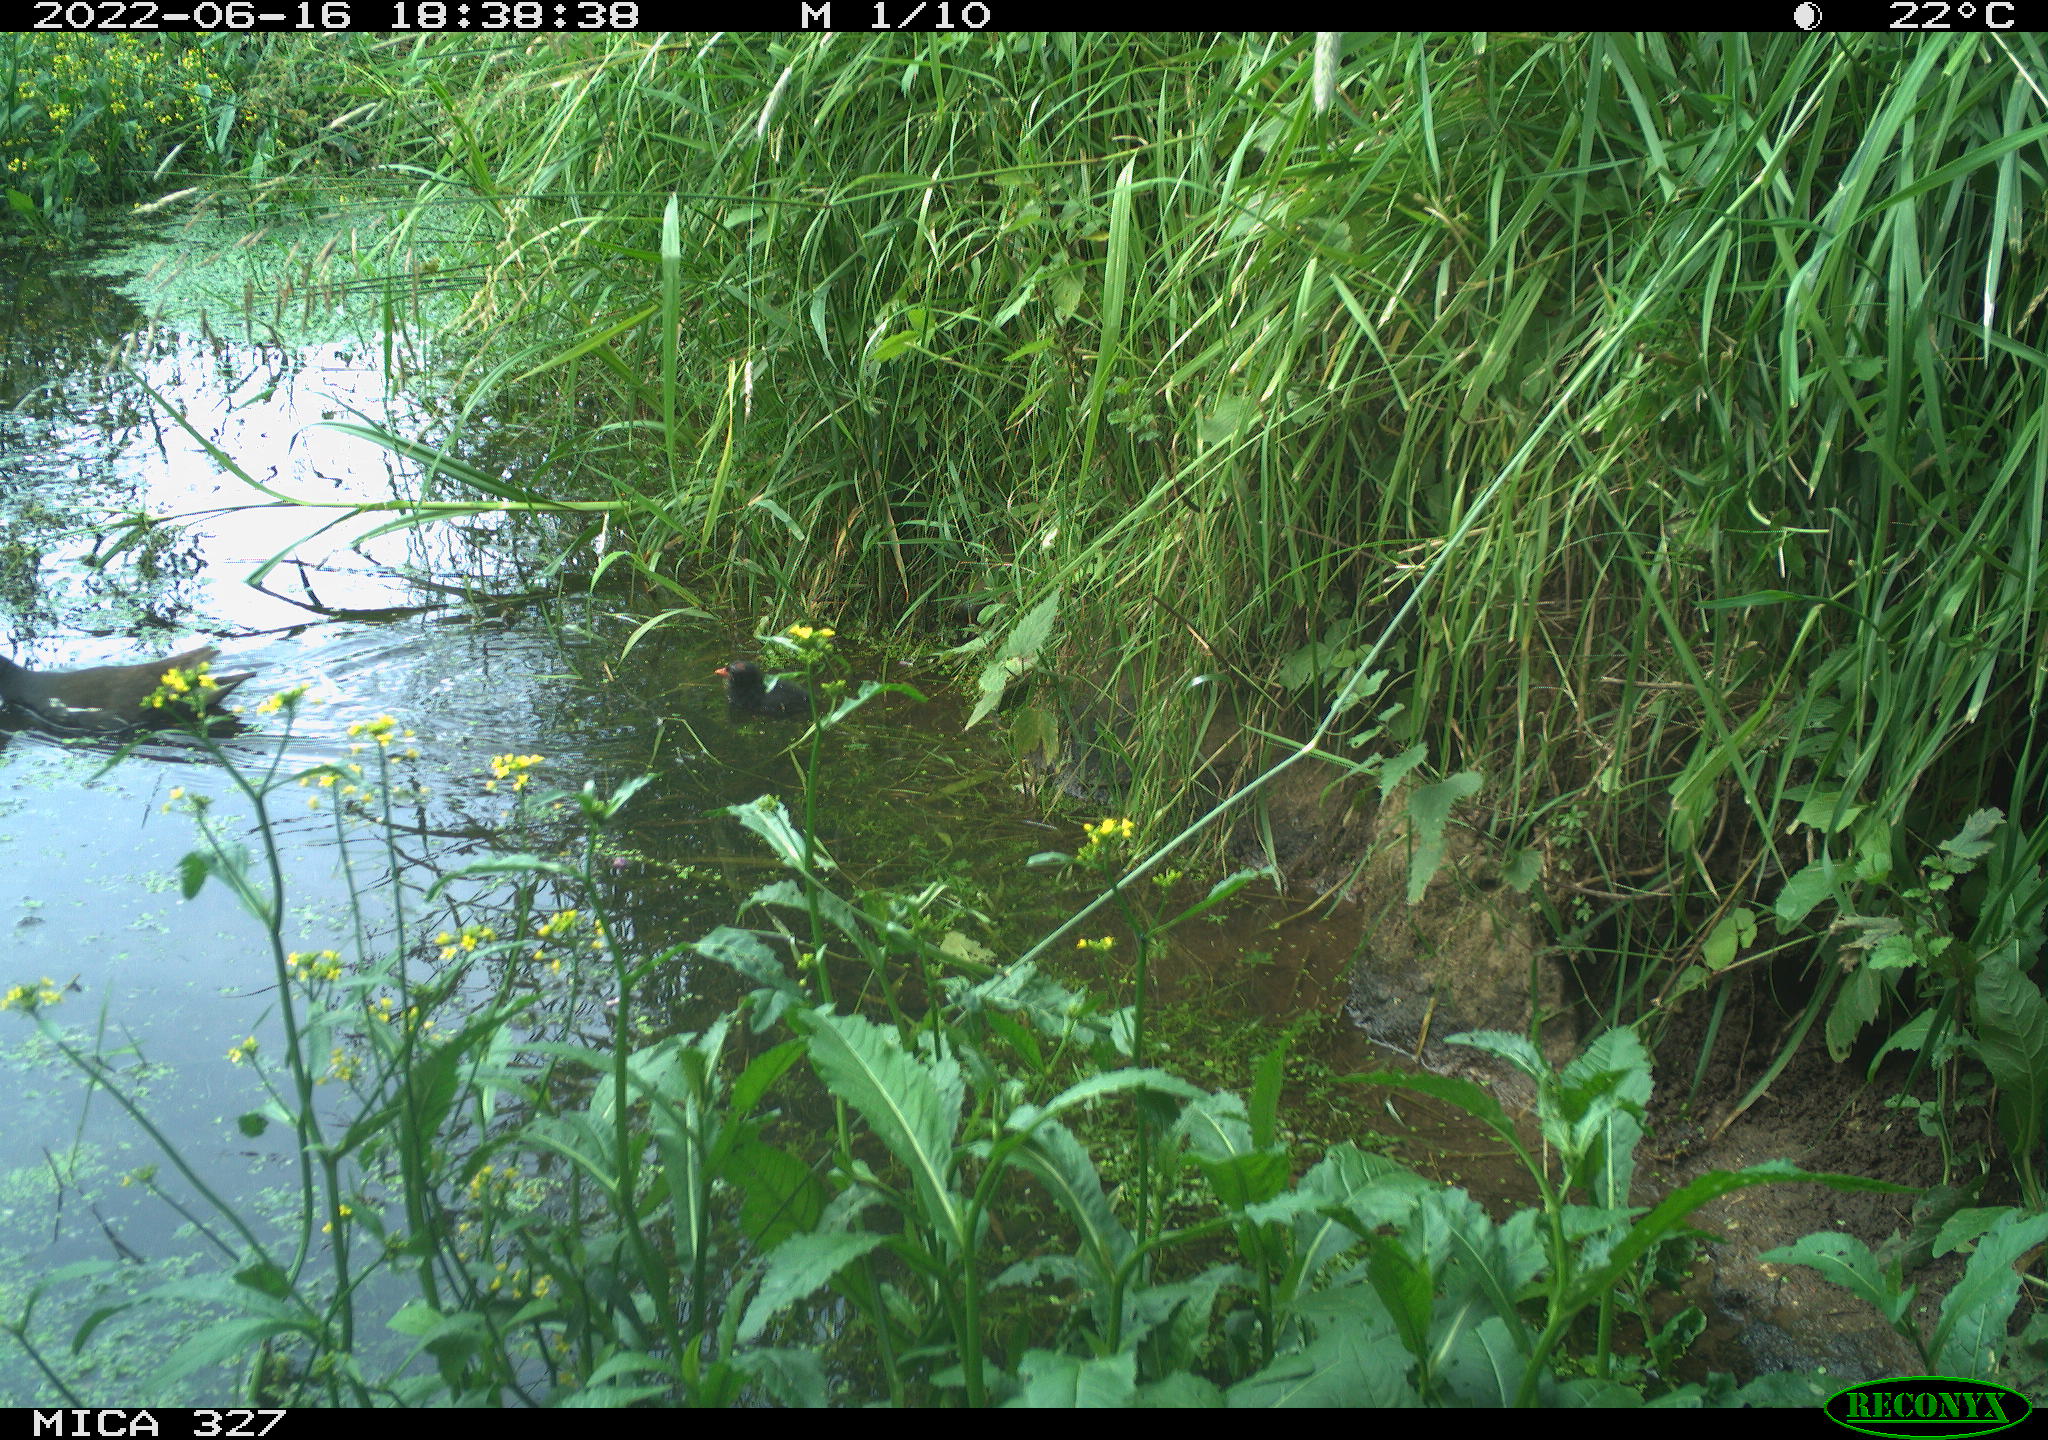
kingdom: Animalia
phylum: Chordata
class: Aves
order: Gruiformes
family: Rallidae
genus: Gallinula
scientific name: Gallinula chloropus
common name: Common moorhen
